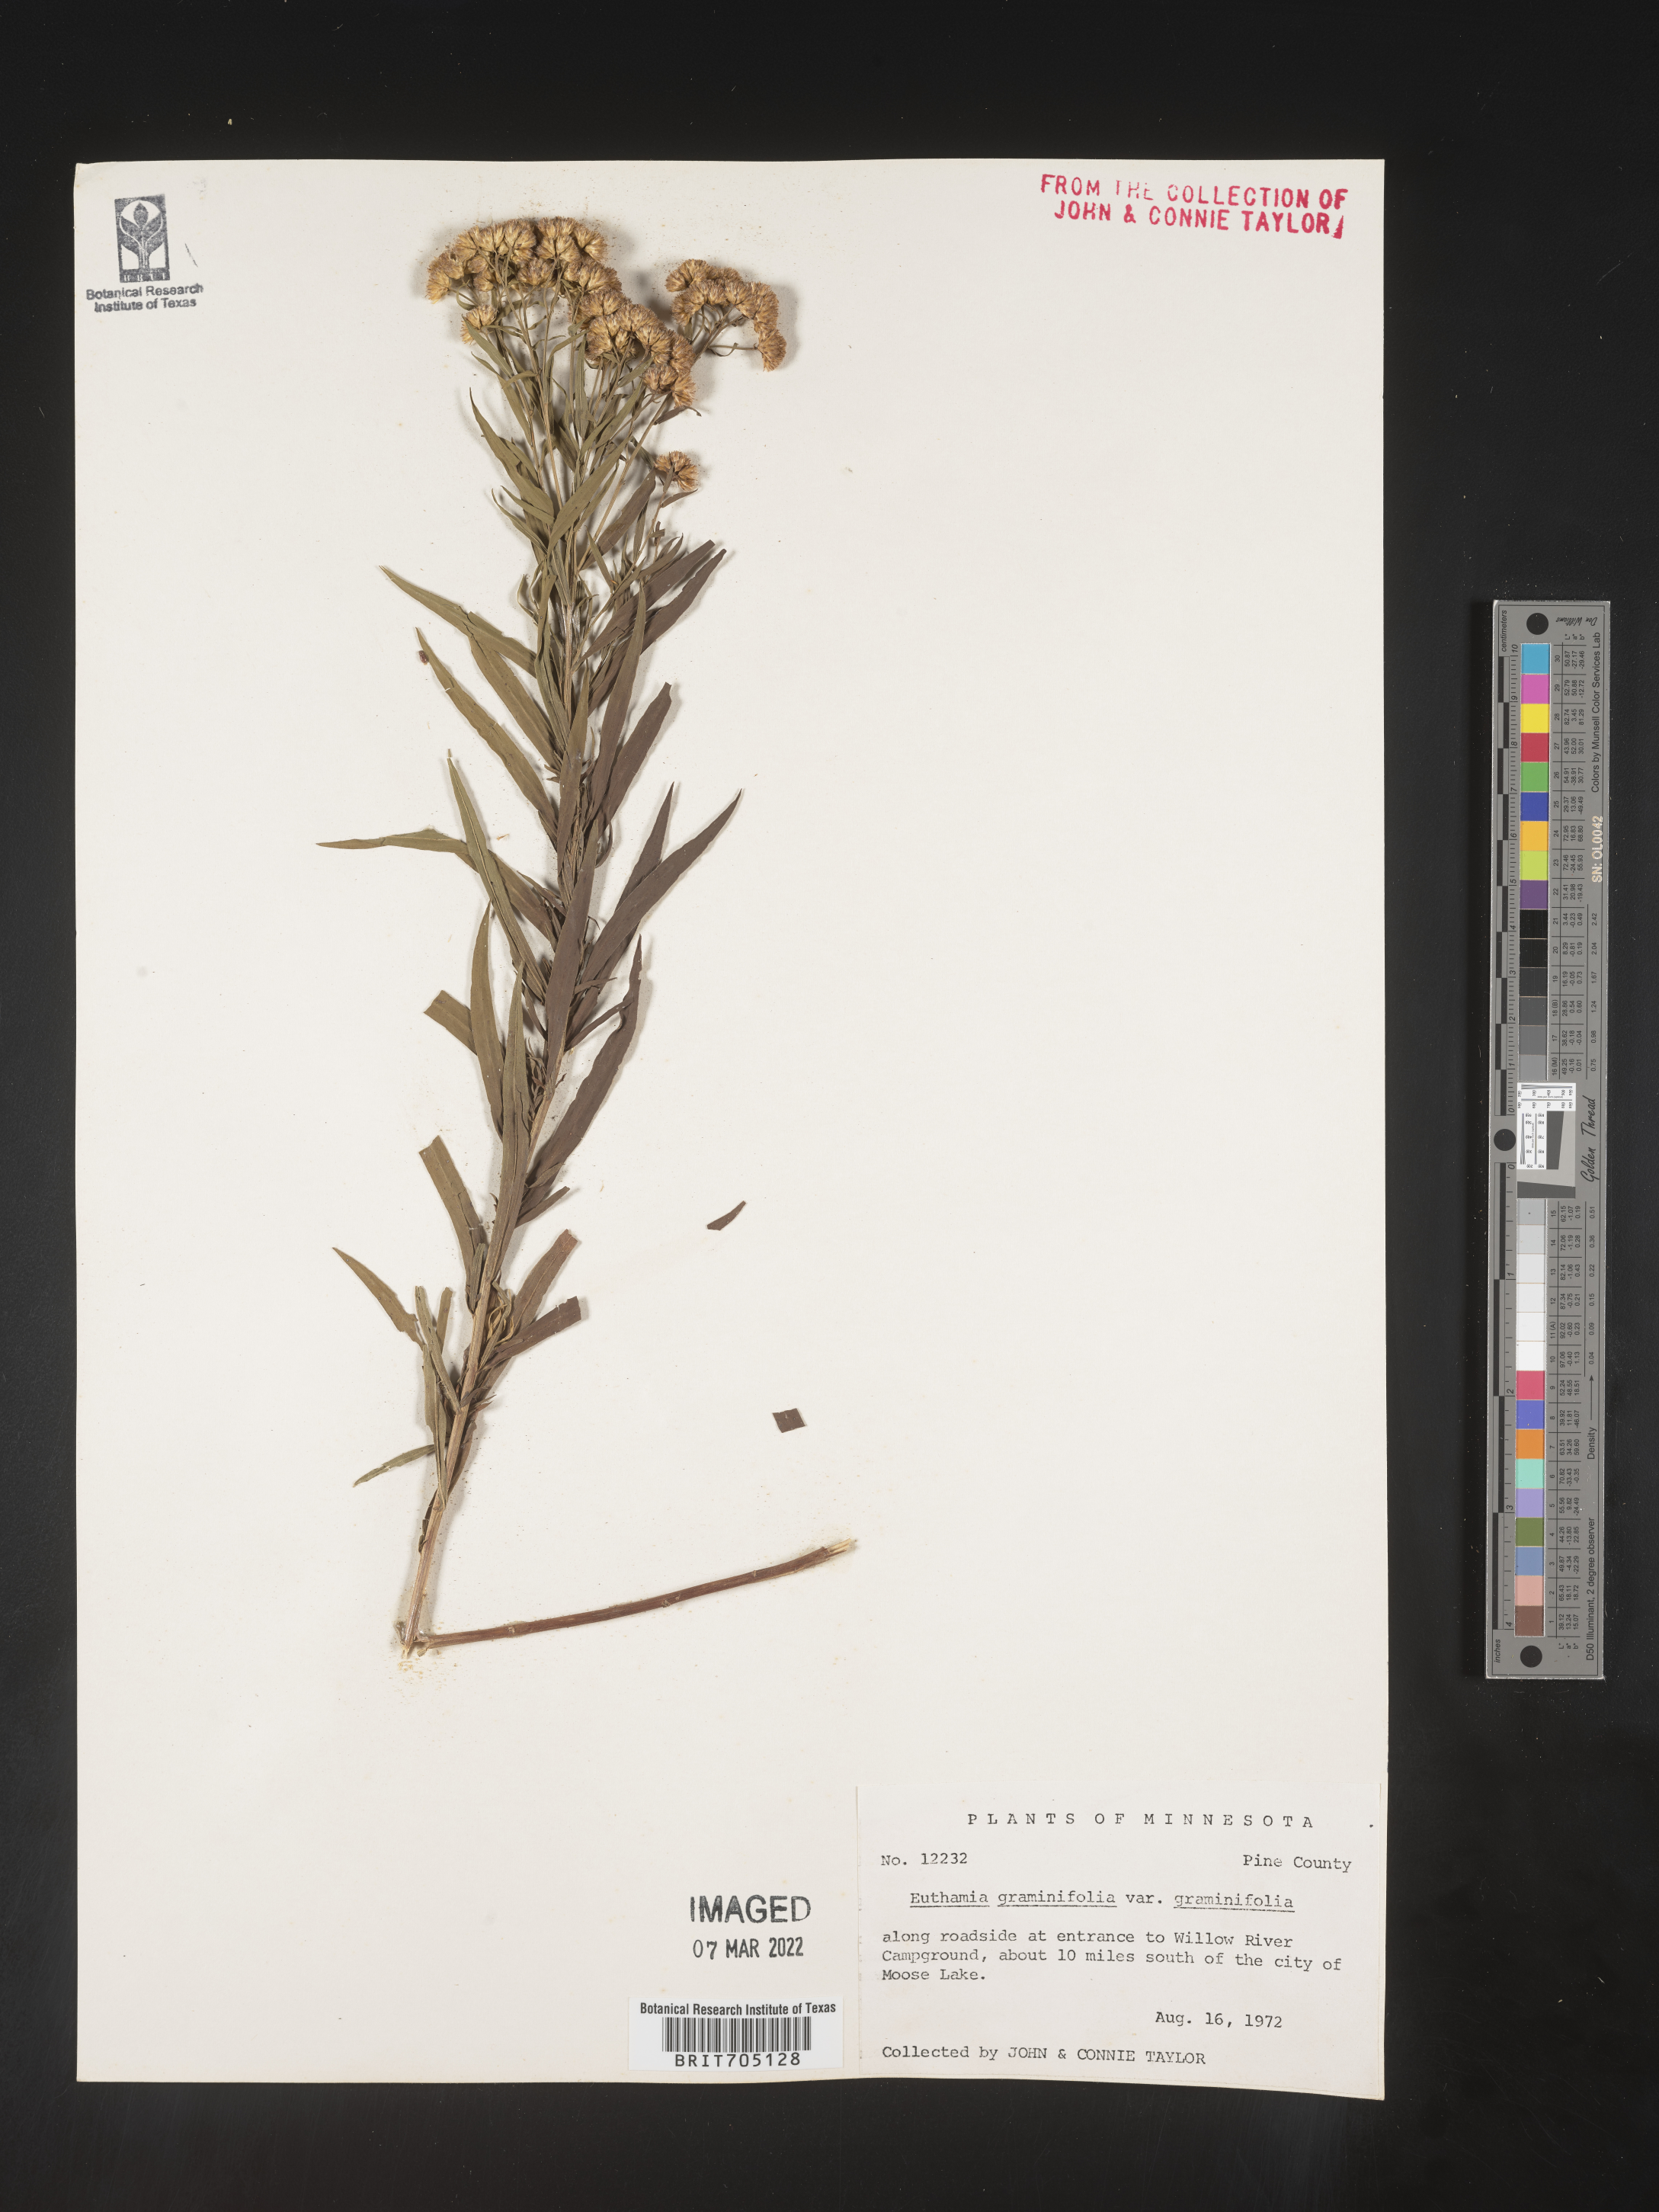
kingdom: Plantae
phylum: Tracheophyta
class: Magnoliopsida
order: Asterales
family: Asteraceae
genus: Euthamia
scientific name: Euthamia graminifolia
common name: Common goldentop
